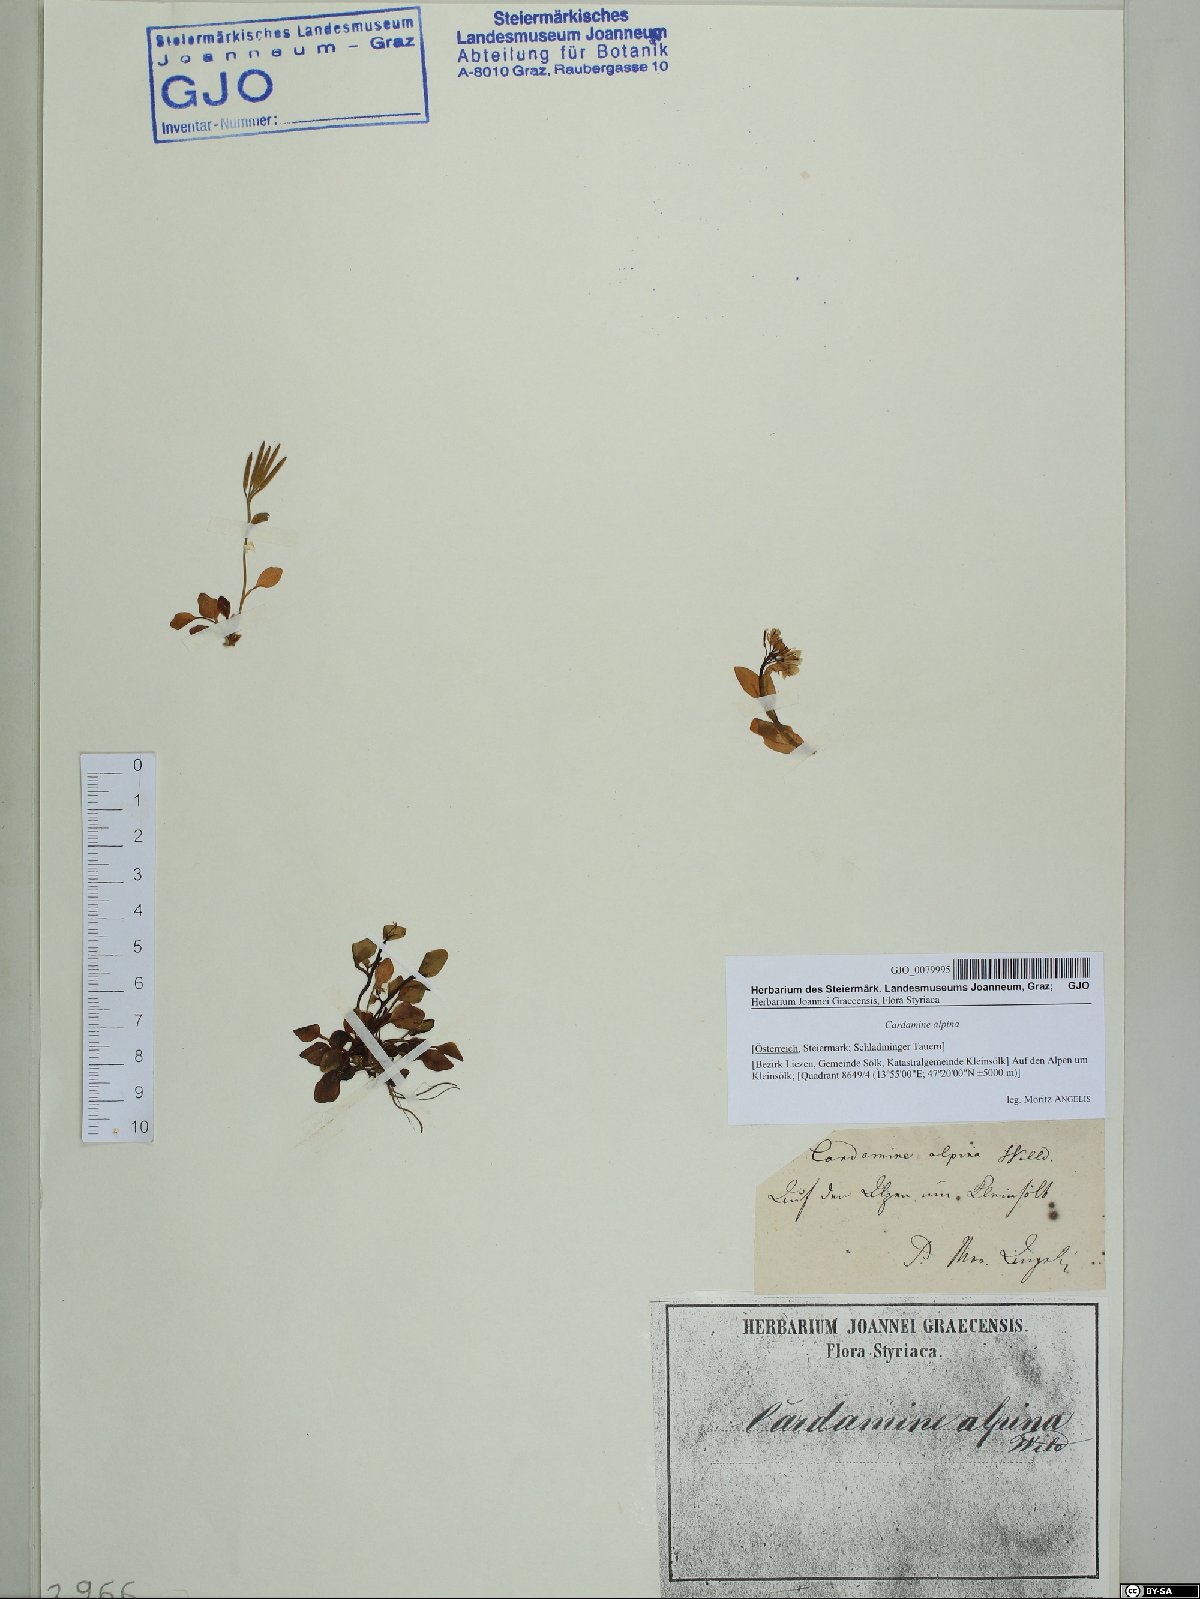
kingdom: Plantae
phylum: Tracheophyta
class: Magnoliopsida
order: Brassicales
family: Brassicaceae
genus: Cardamine
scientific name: Cardamine bellidifolia
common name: Alpine bittercress
